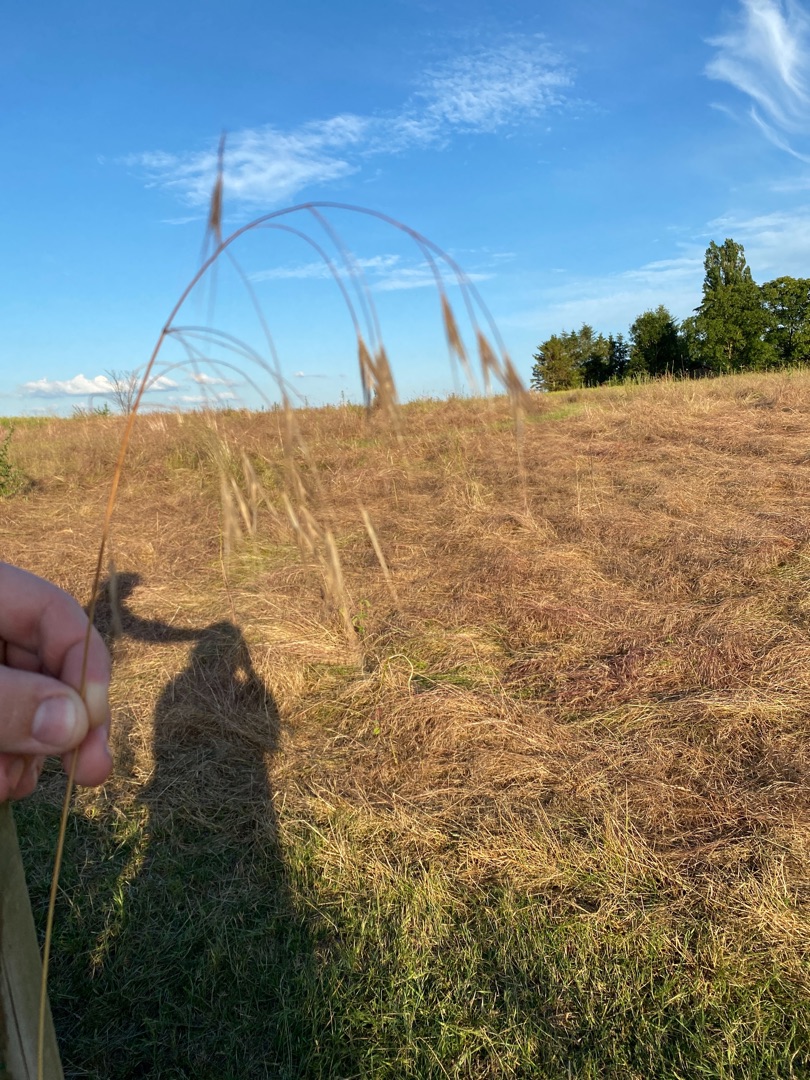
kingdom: Plantae
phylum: Tracheophyta
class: Liliopsida
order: Poales
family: Poaceae
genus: Bromus
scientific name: Bromus sterilis
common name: Gold hejre
